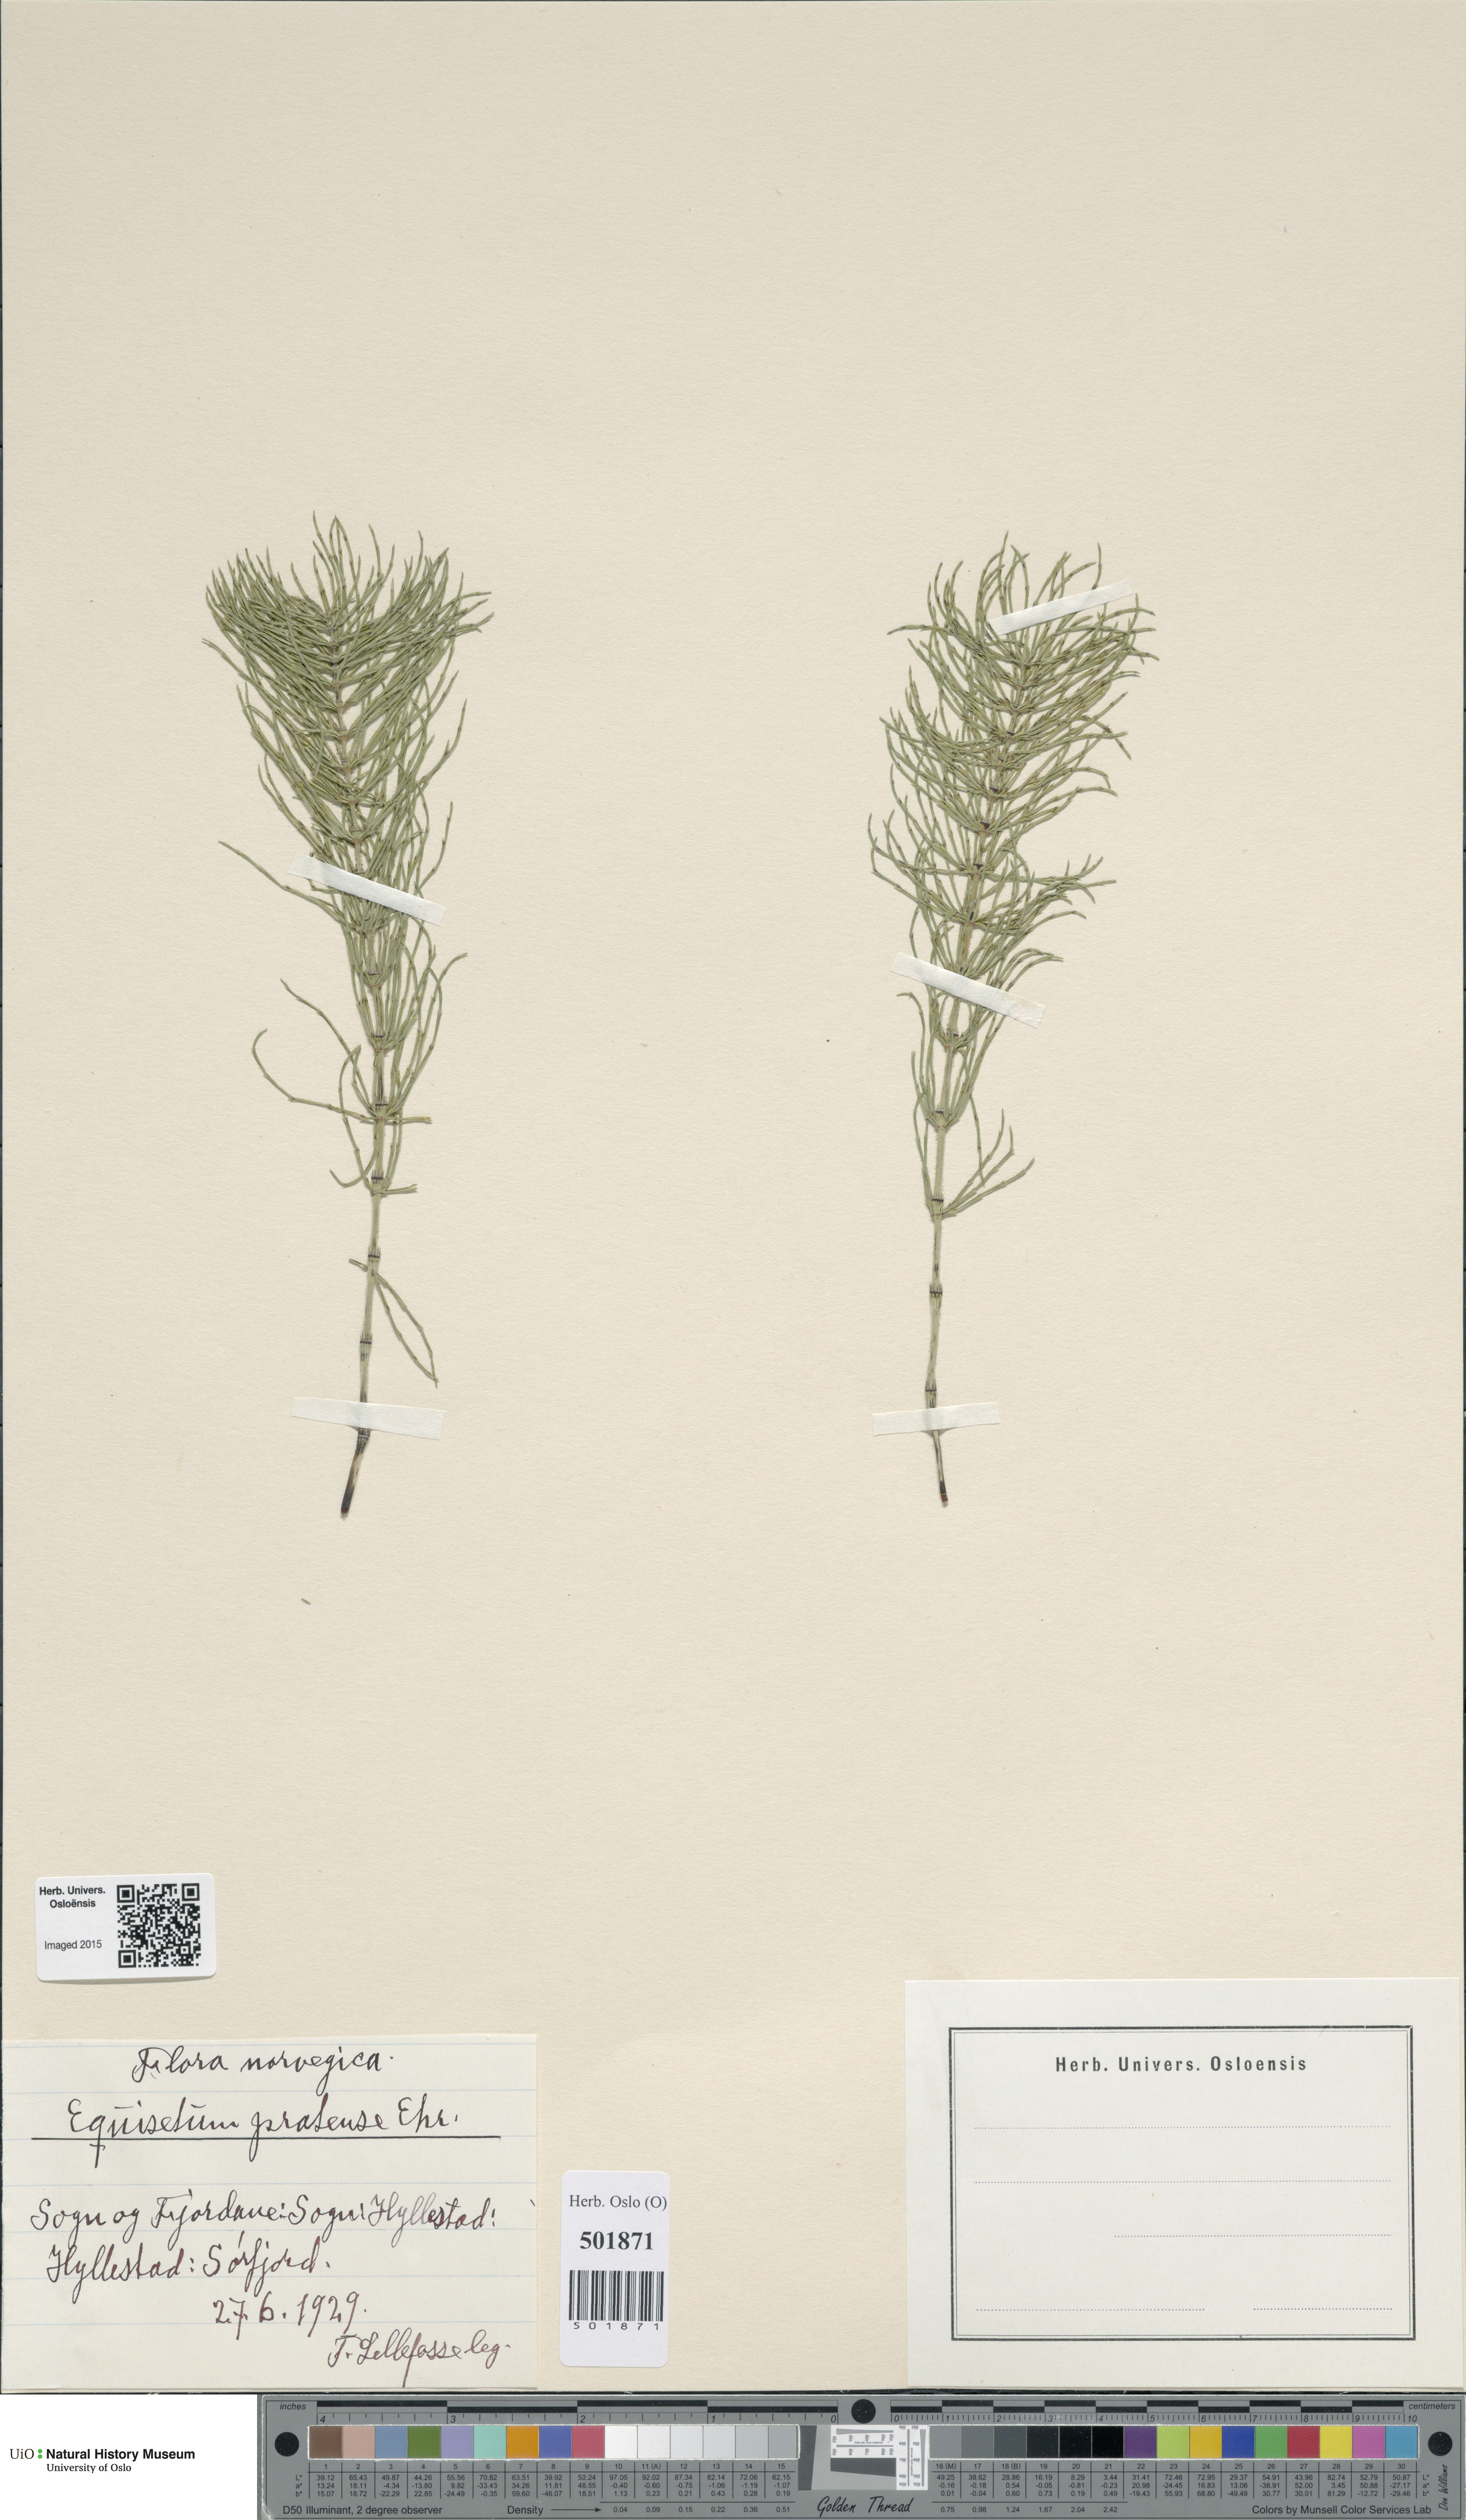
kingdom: Plantae
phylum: Tracheophyta
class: Polypodiopsida
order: Equisetales
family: Equisetaceae
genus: Equisetum
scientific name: Equisetum pratense
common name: Meadow horsetail
